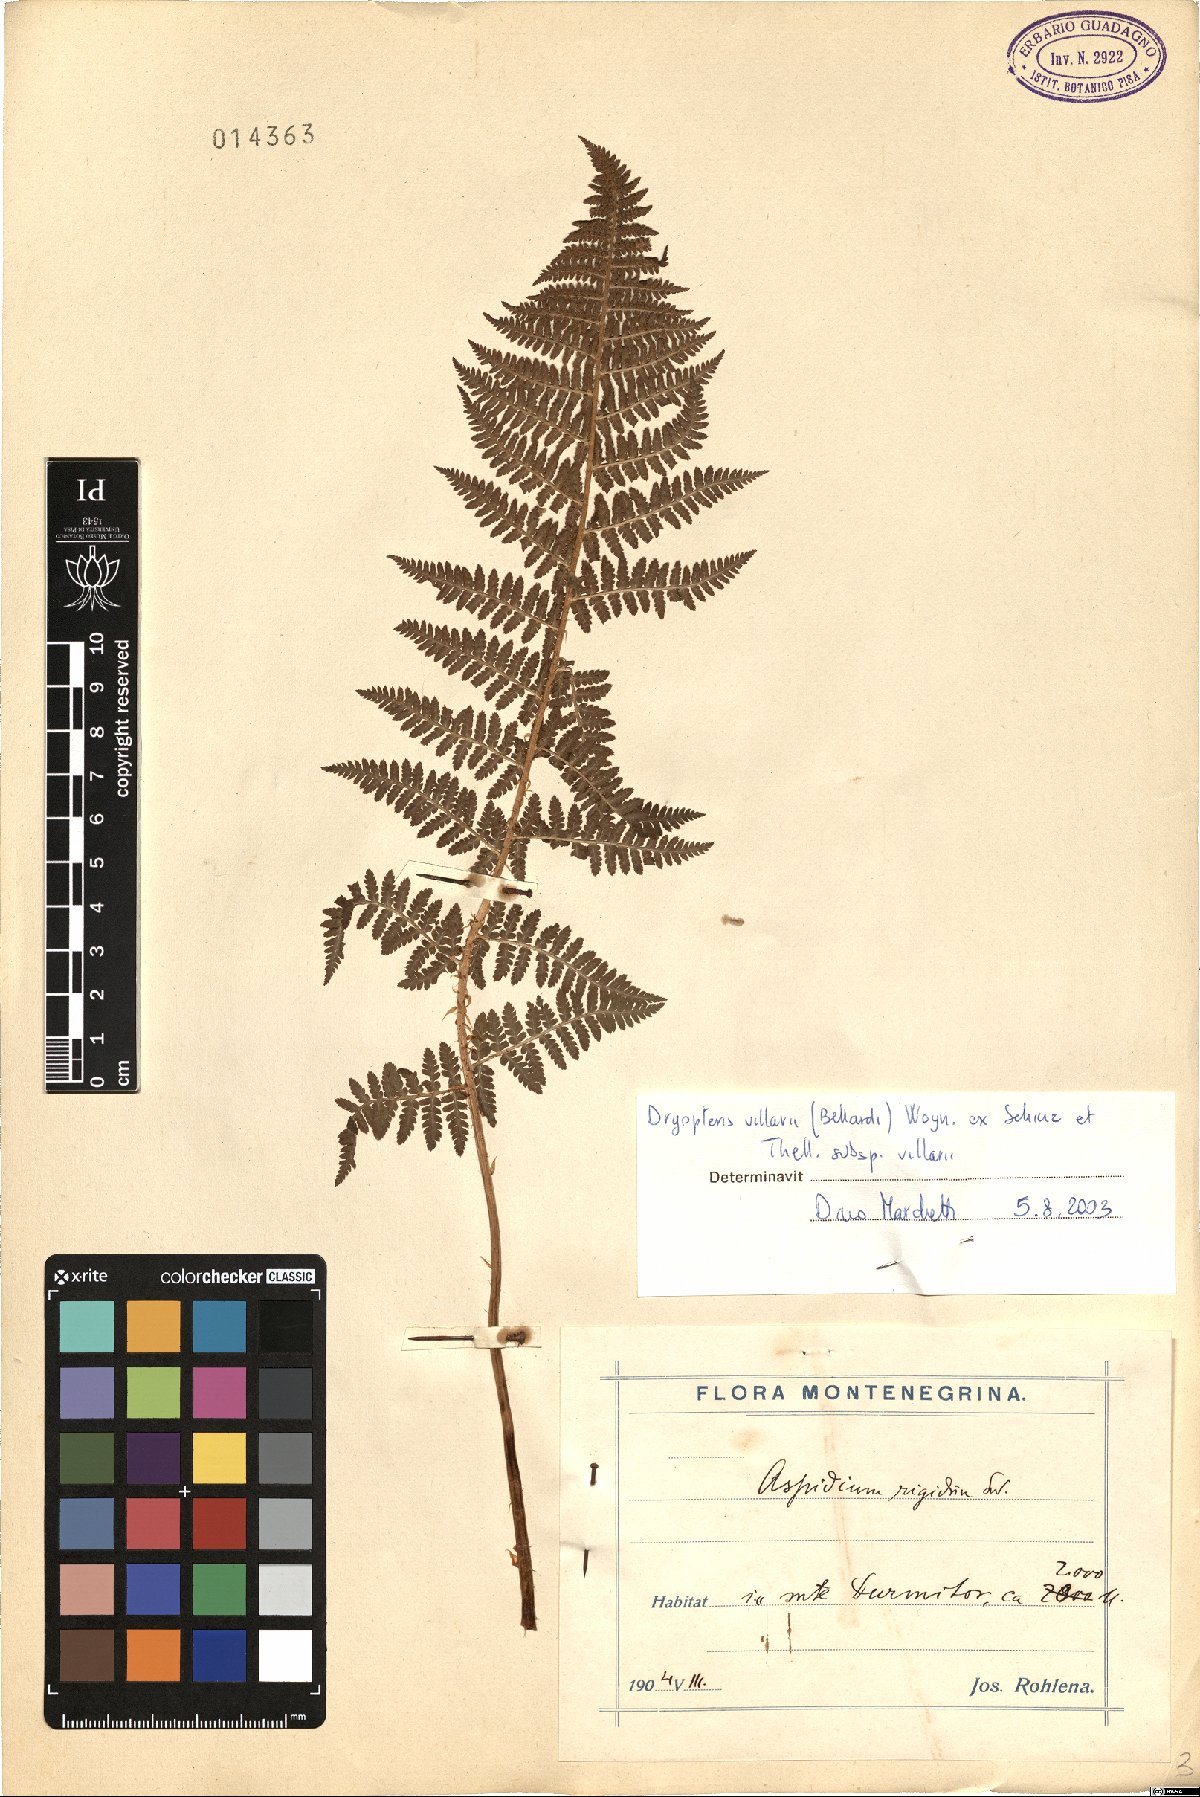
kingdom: Plantae
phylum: Tracheophyta
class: Polypodiopsida
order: Polypodiales
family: Dryopteridaceae
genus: Dryopteris
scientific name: Dryopteris villarii
